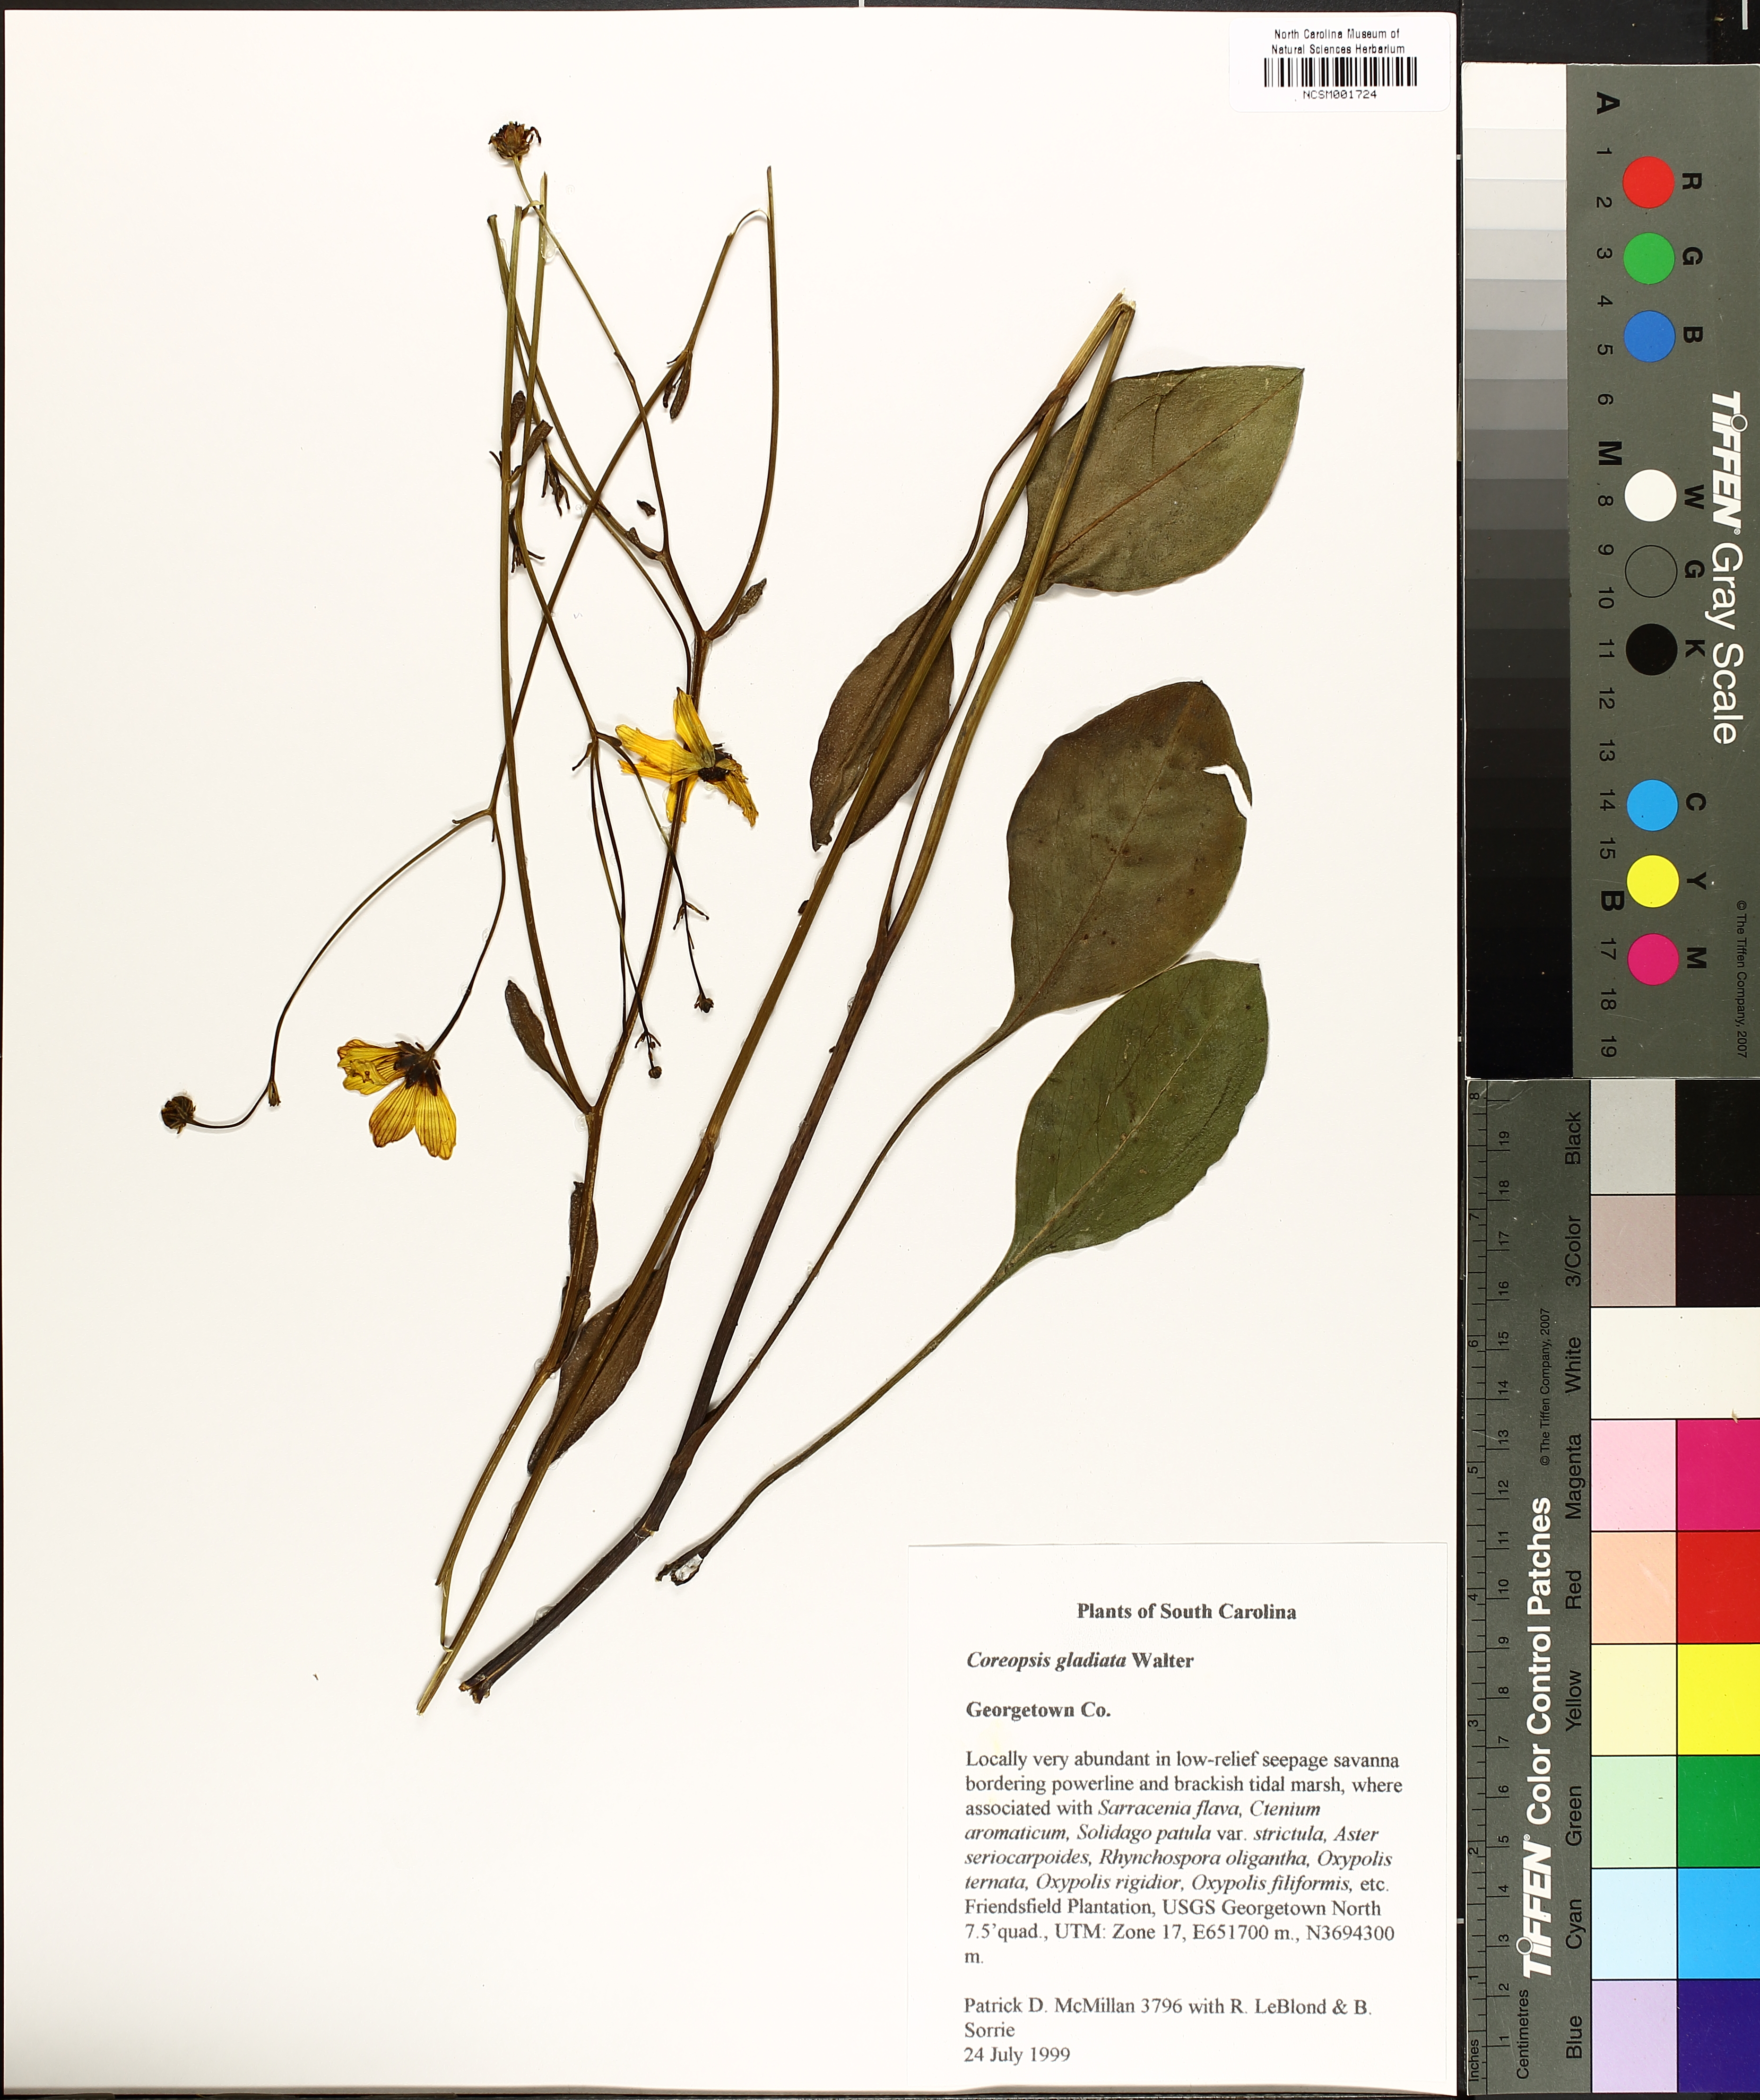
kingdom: Plantae
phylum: Tracheophyta
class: Magnoliopsida
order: Asterales
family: Asteraceae
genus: Coreopsis
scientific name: Coreopsis gladiata
